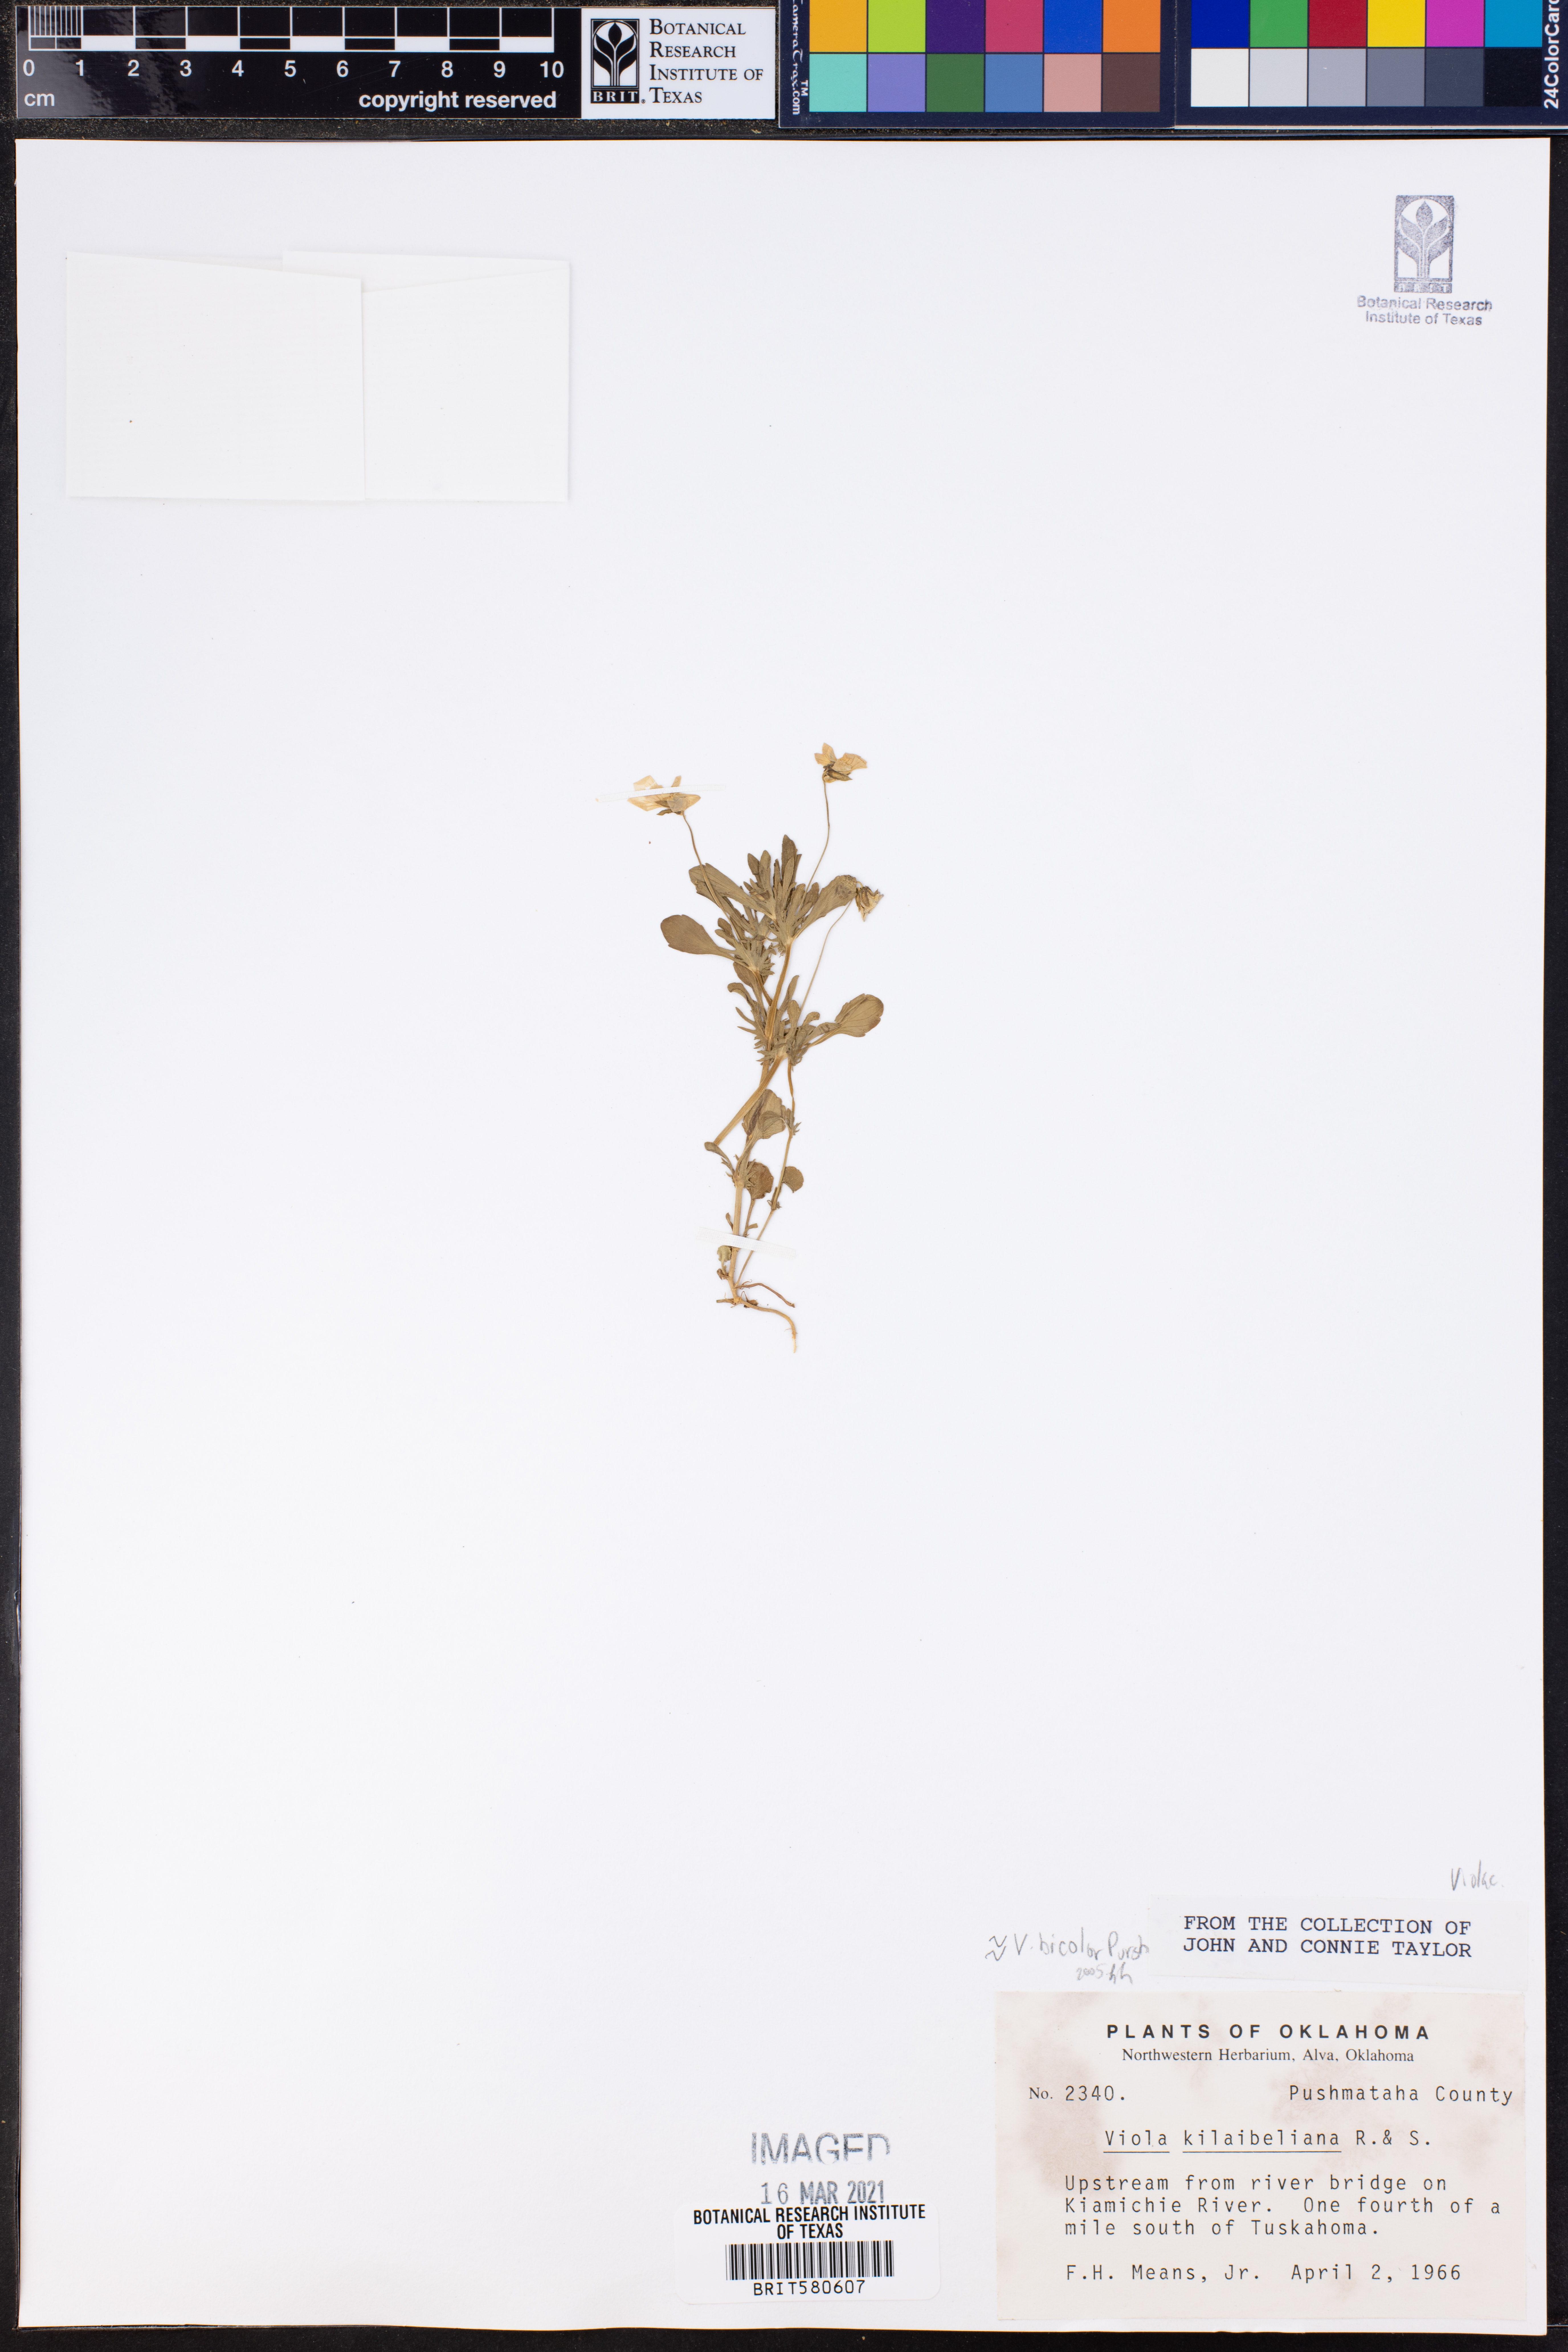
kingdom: Plantae
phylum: Tracheophyta
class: Magnoliopsida
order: Malpighiales
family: Violaceae
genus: Viola
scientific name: Viola rafinesquei
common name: American field pansy
